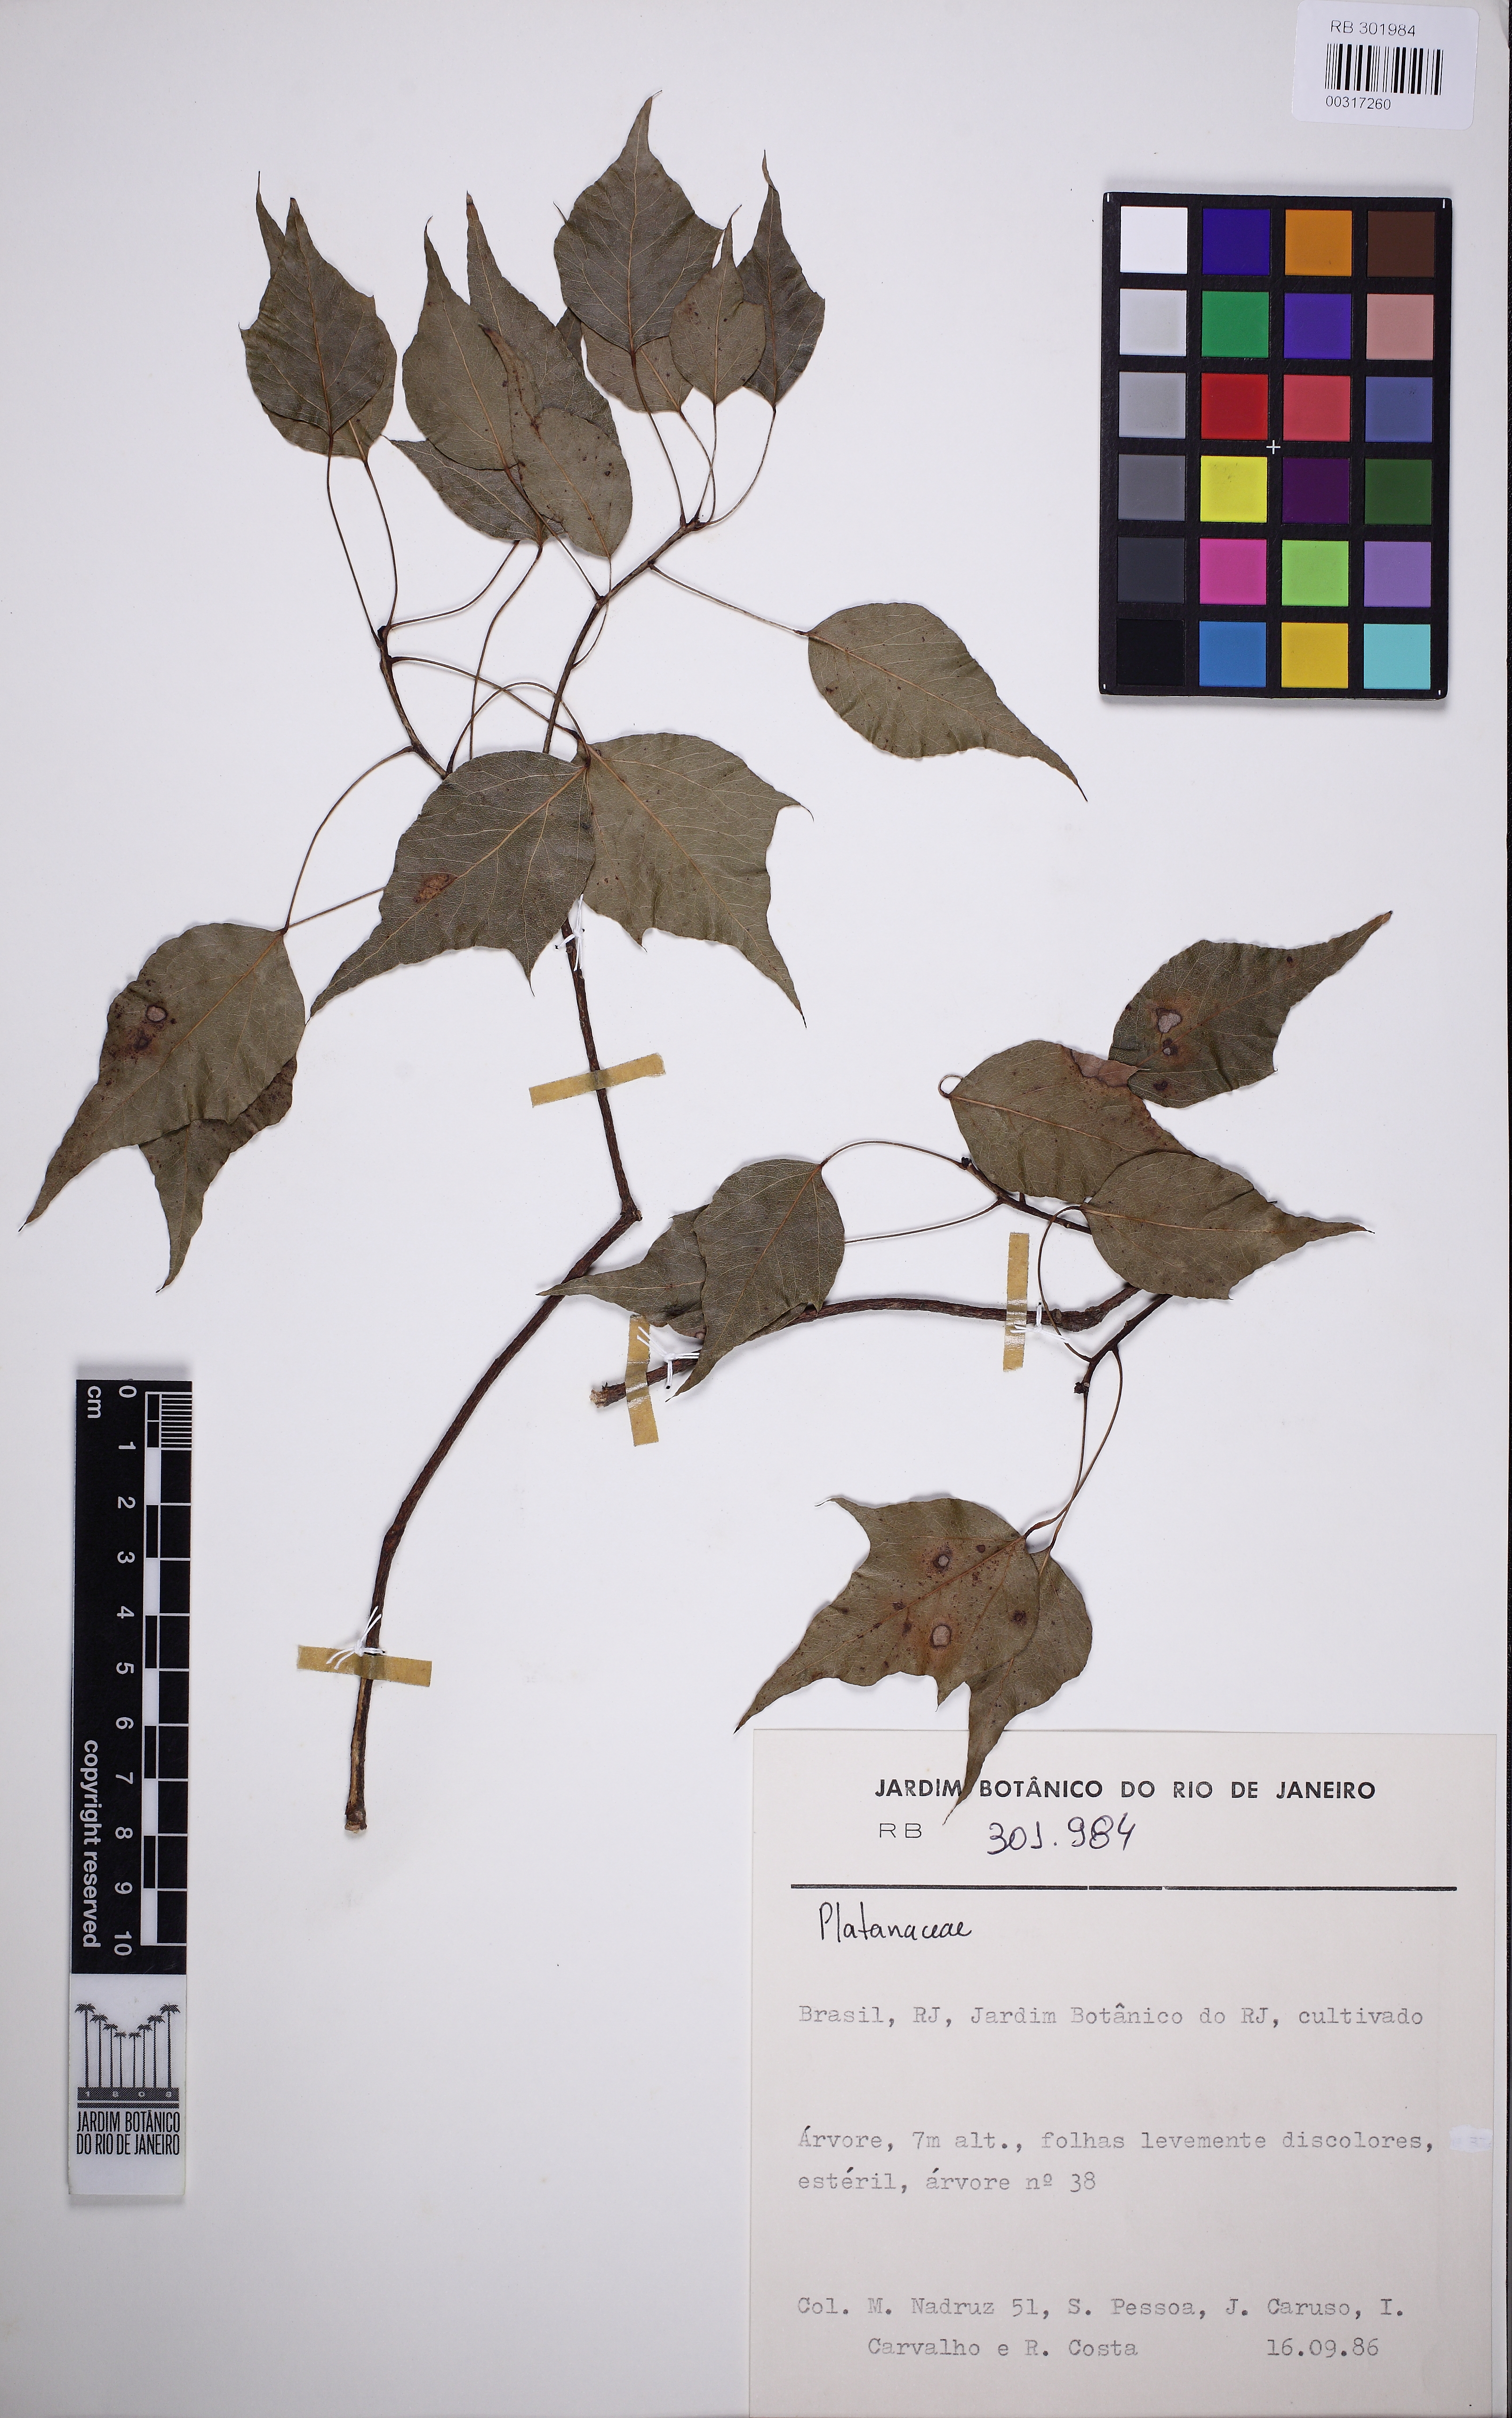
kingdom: Plantae
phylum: Tracheophyta
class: Magnoliopsida
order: Proteales
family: Platanaceae
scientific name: Platanaceae
